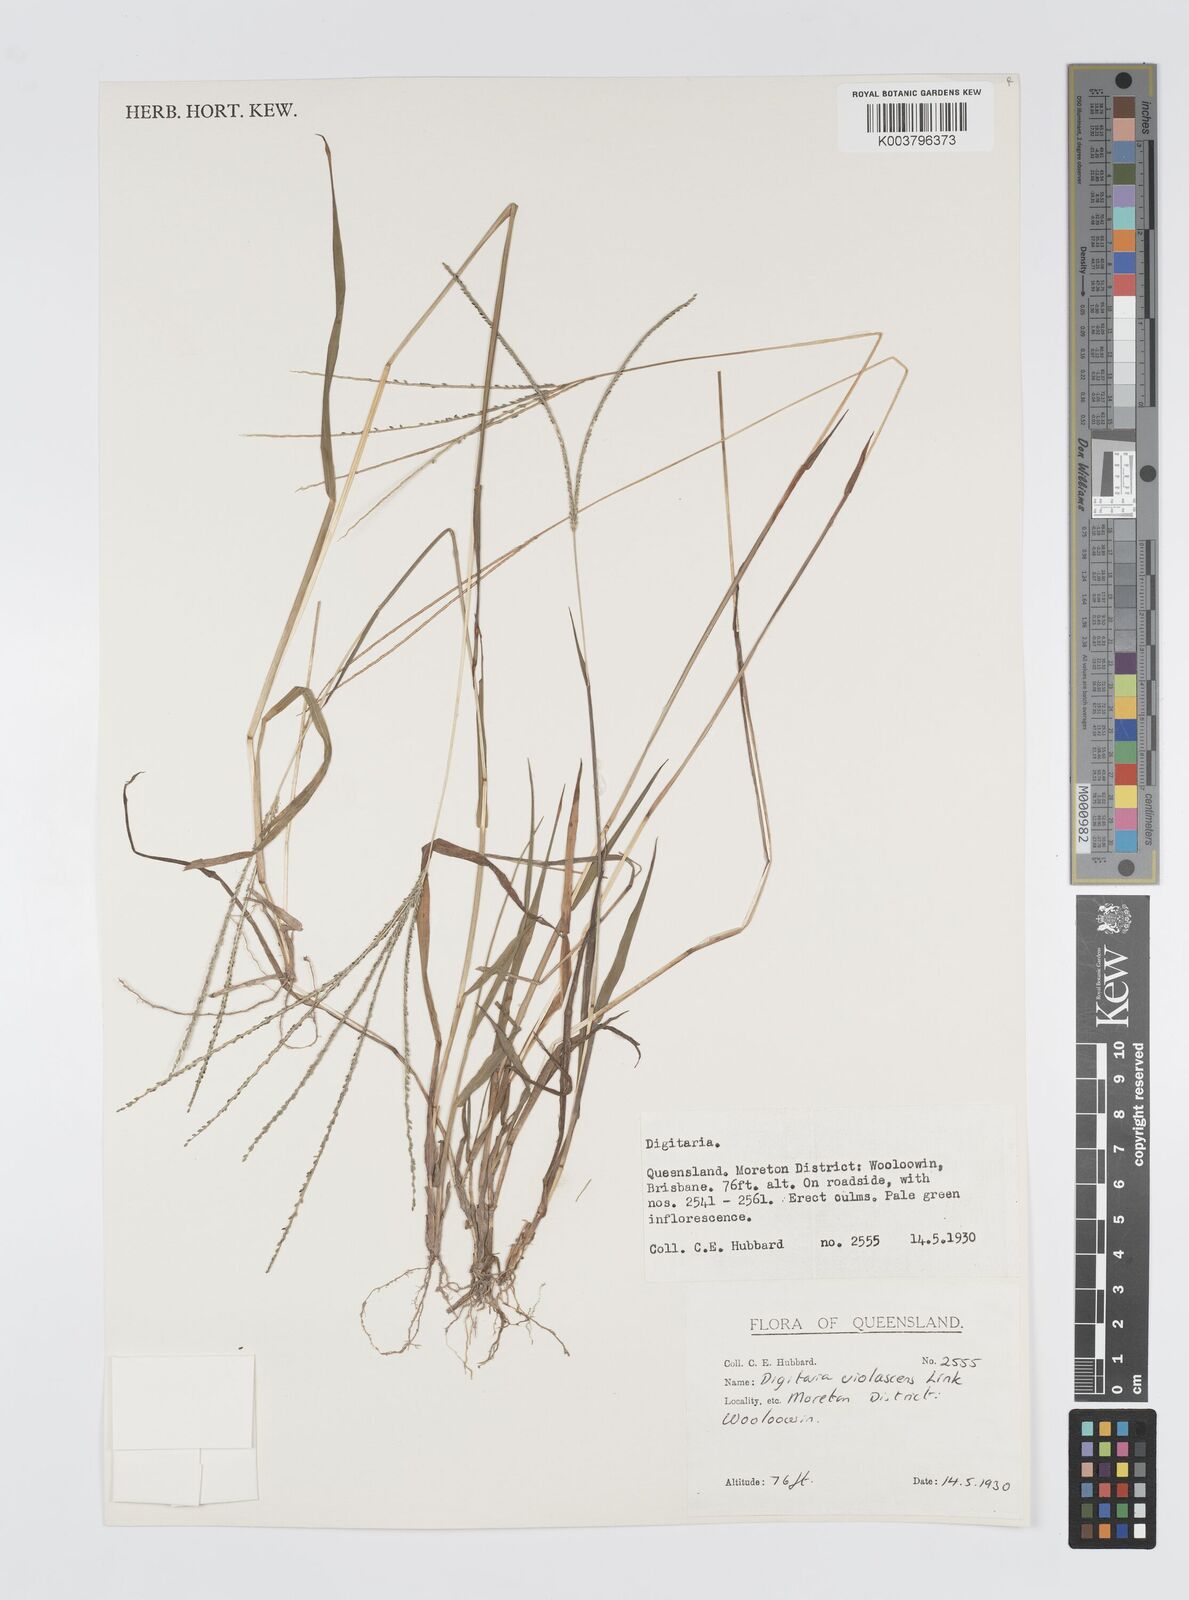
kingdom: Plantae
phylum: Tracheophyta
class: Liliopsida
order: Poales
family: Poaceae
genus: Digitaria
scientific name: Digitaria violascens
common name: Violet crabgrass
